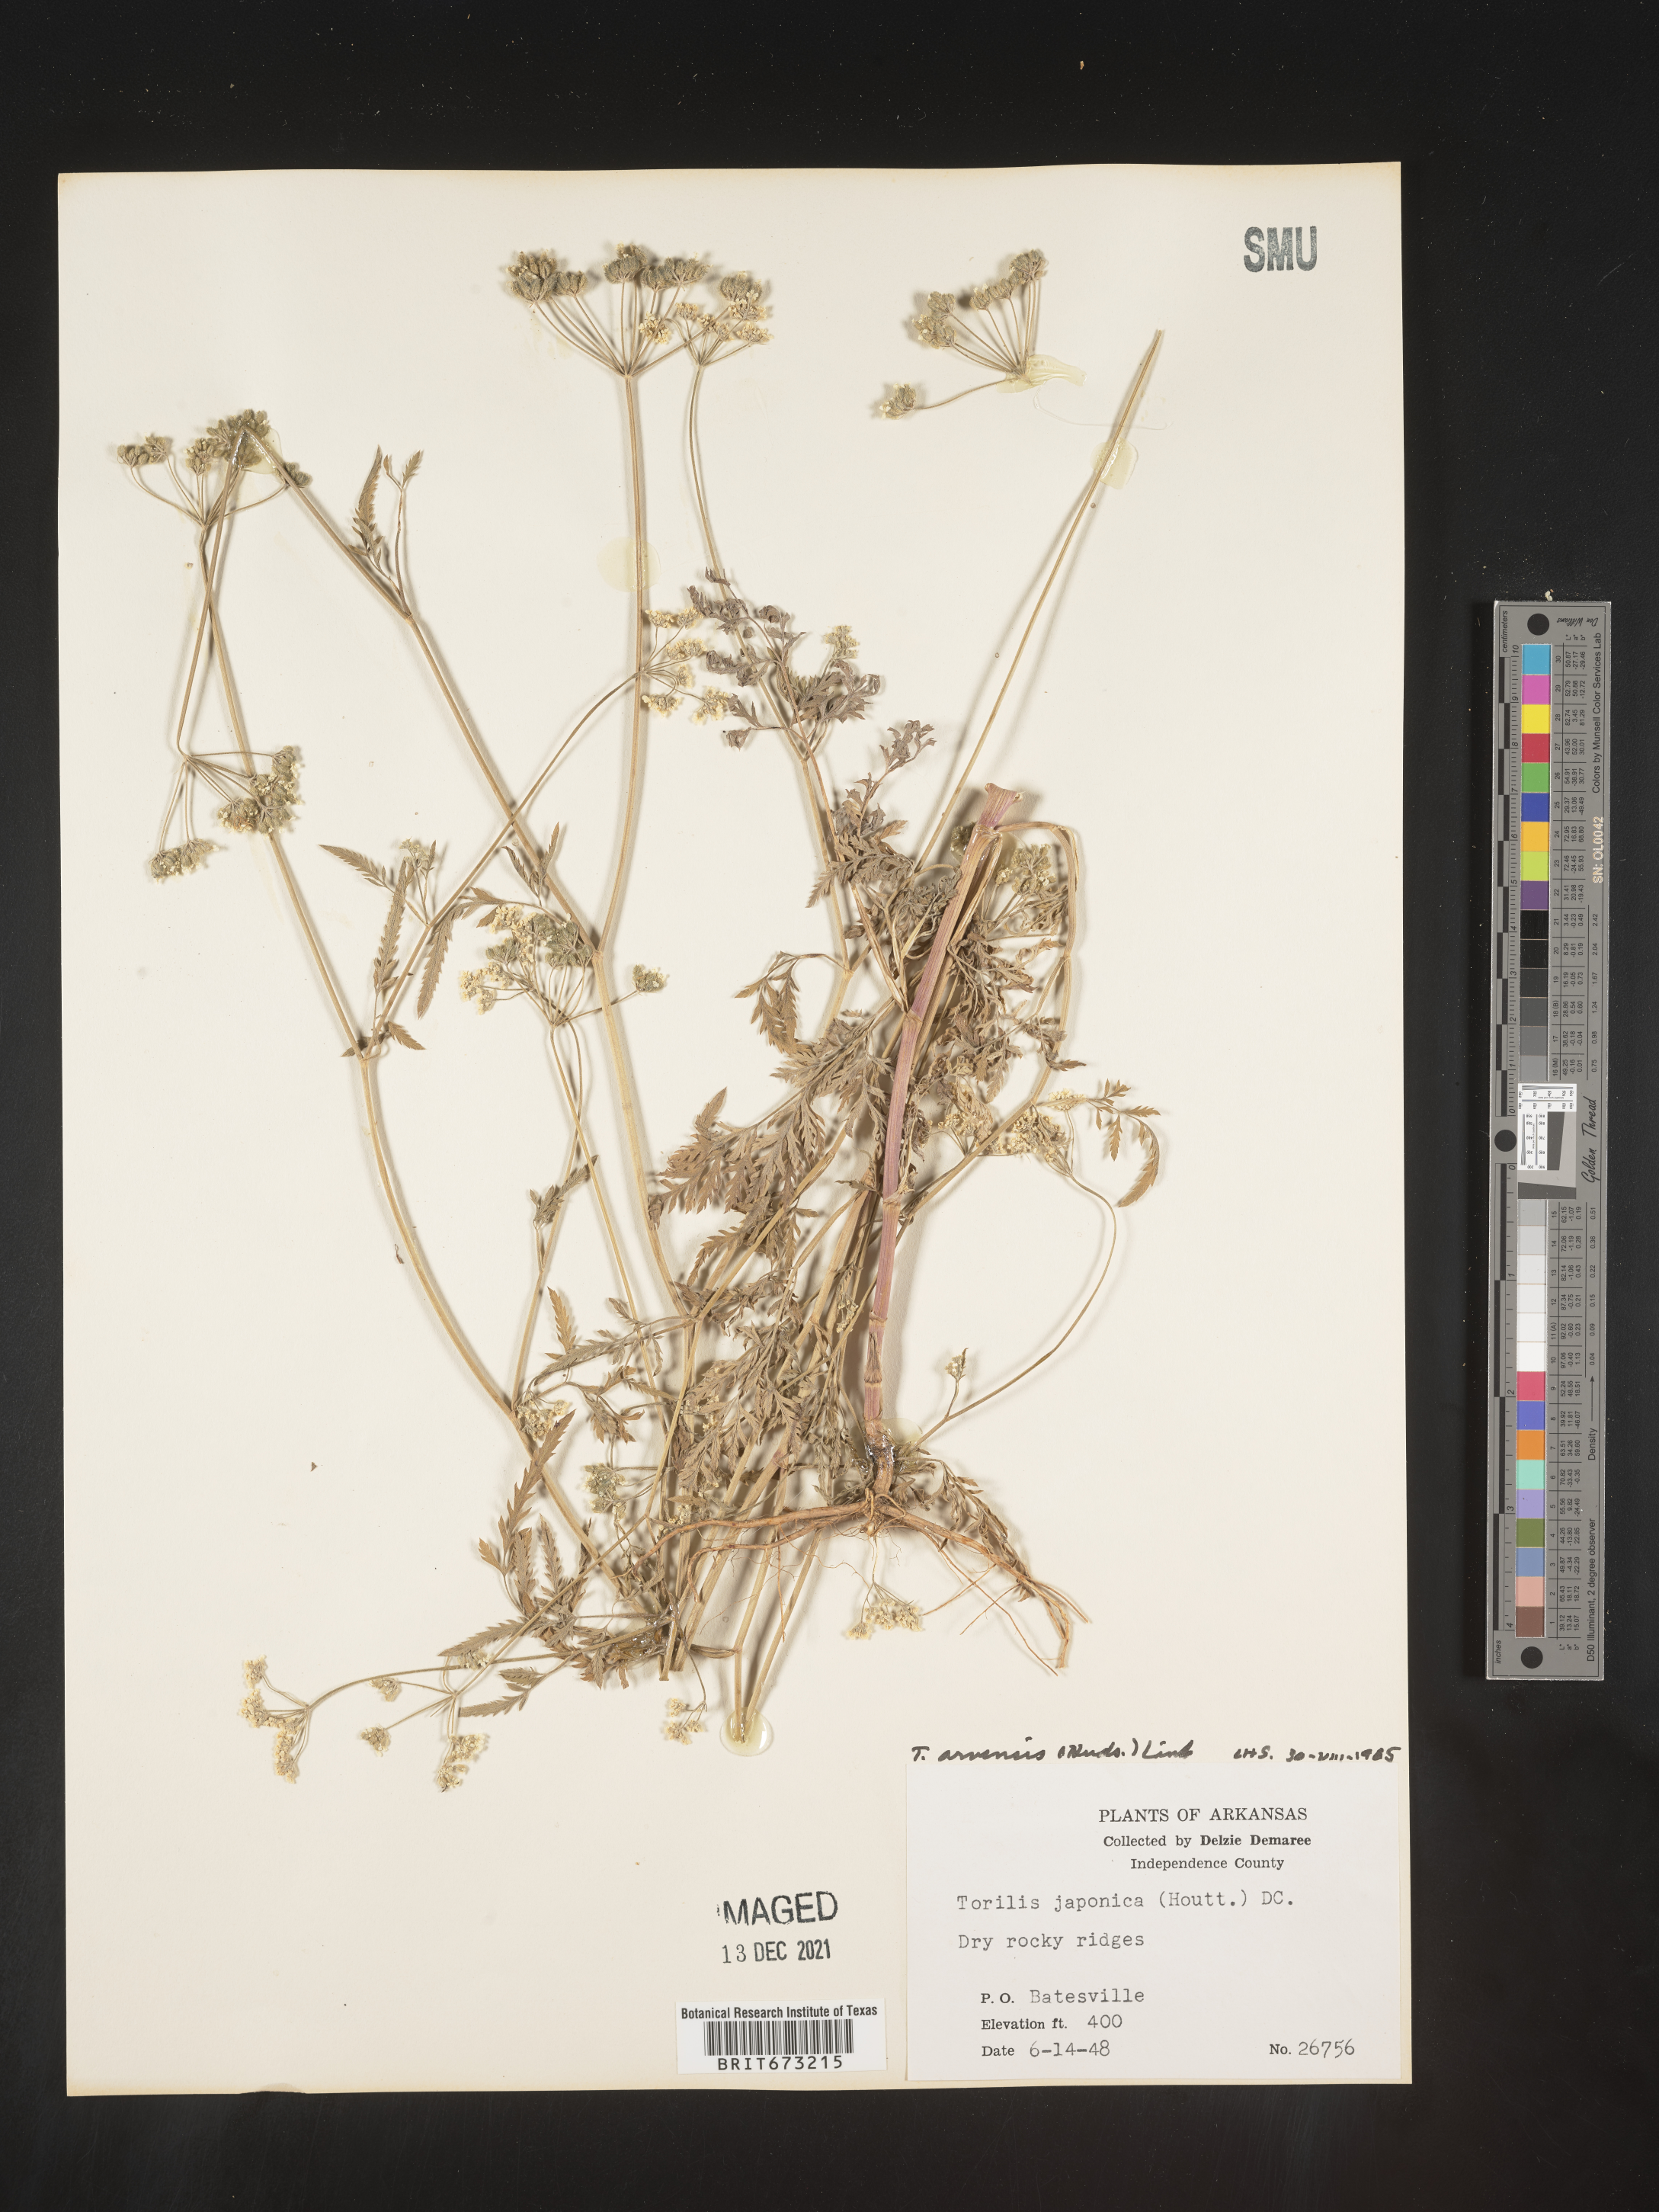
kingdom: Plantae
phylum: Tracheophyta
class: Magnoliopsida
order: Apiales
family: Apiaceae
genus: Torilis
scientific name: Torilis arvensis
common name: Spreading hedge-parsley
